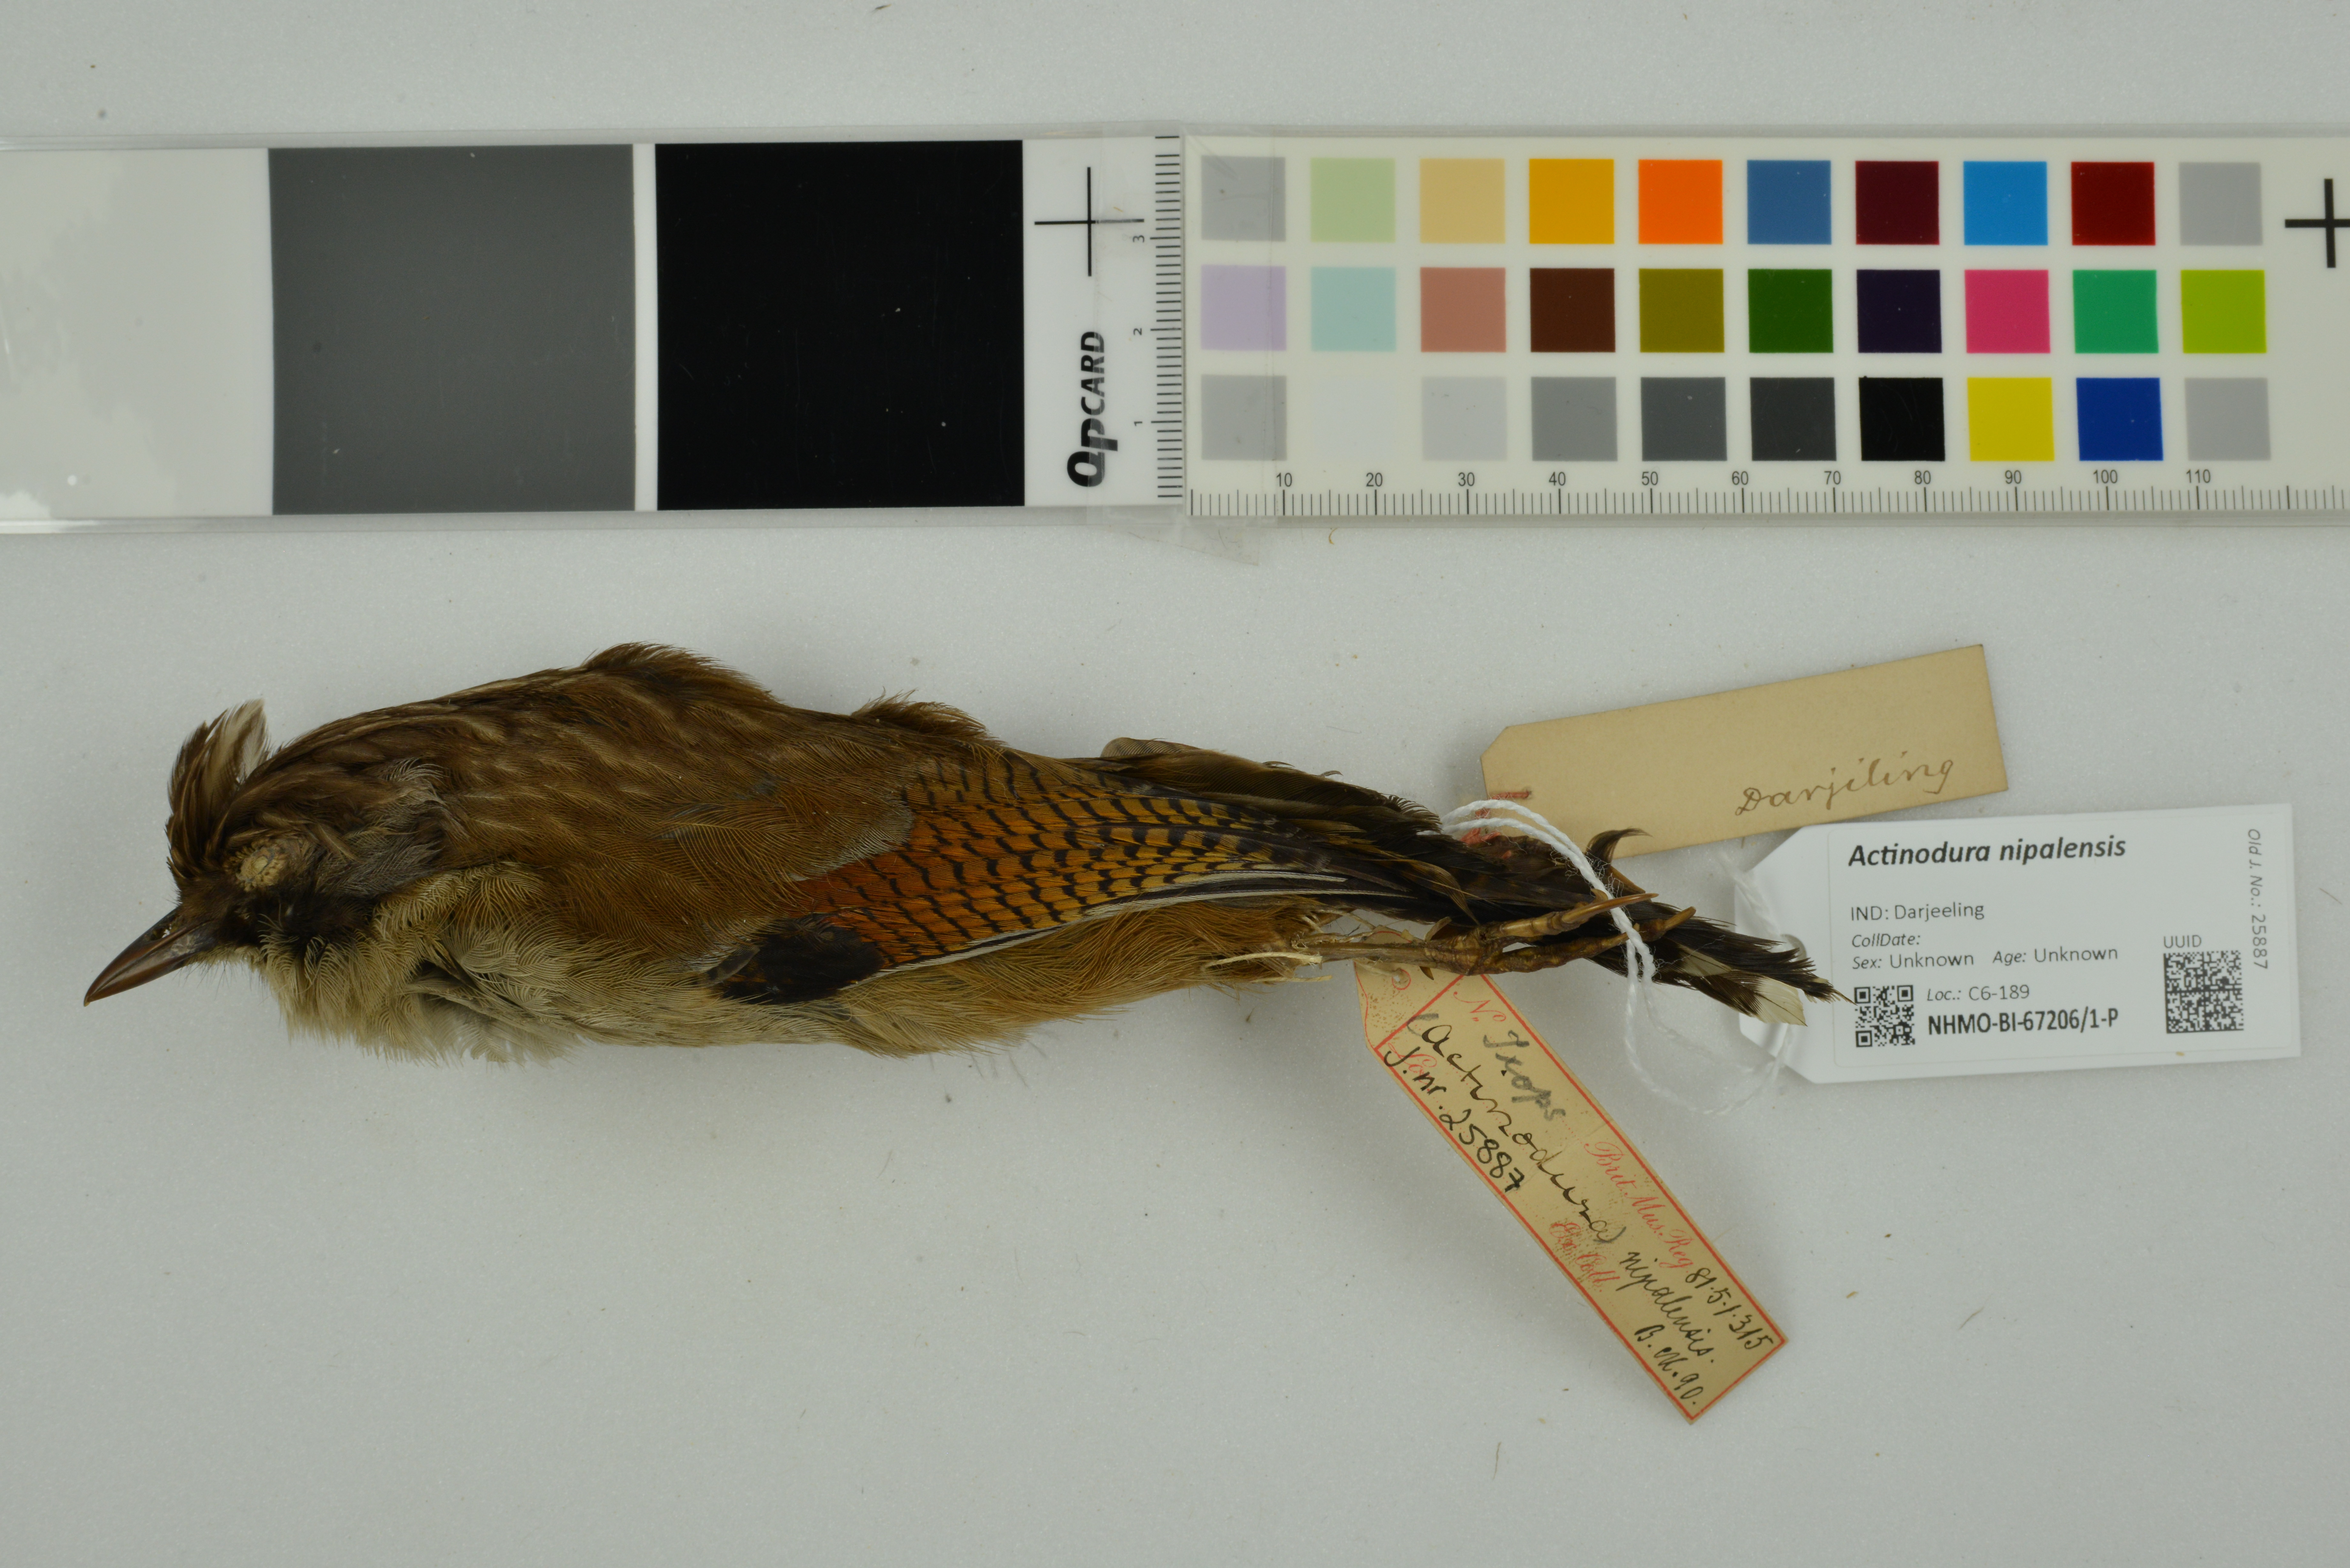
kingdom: Animalia
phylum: Chordata
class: Aves
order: Passeriformes
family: Leiothrichidae
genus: Actinodura
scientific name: Actinodura nipalensis
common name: Hoary-throated barwing
